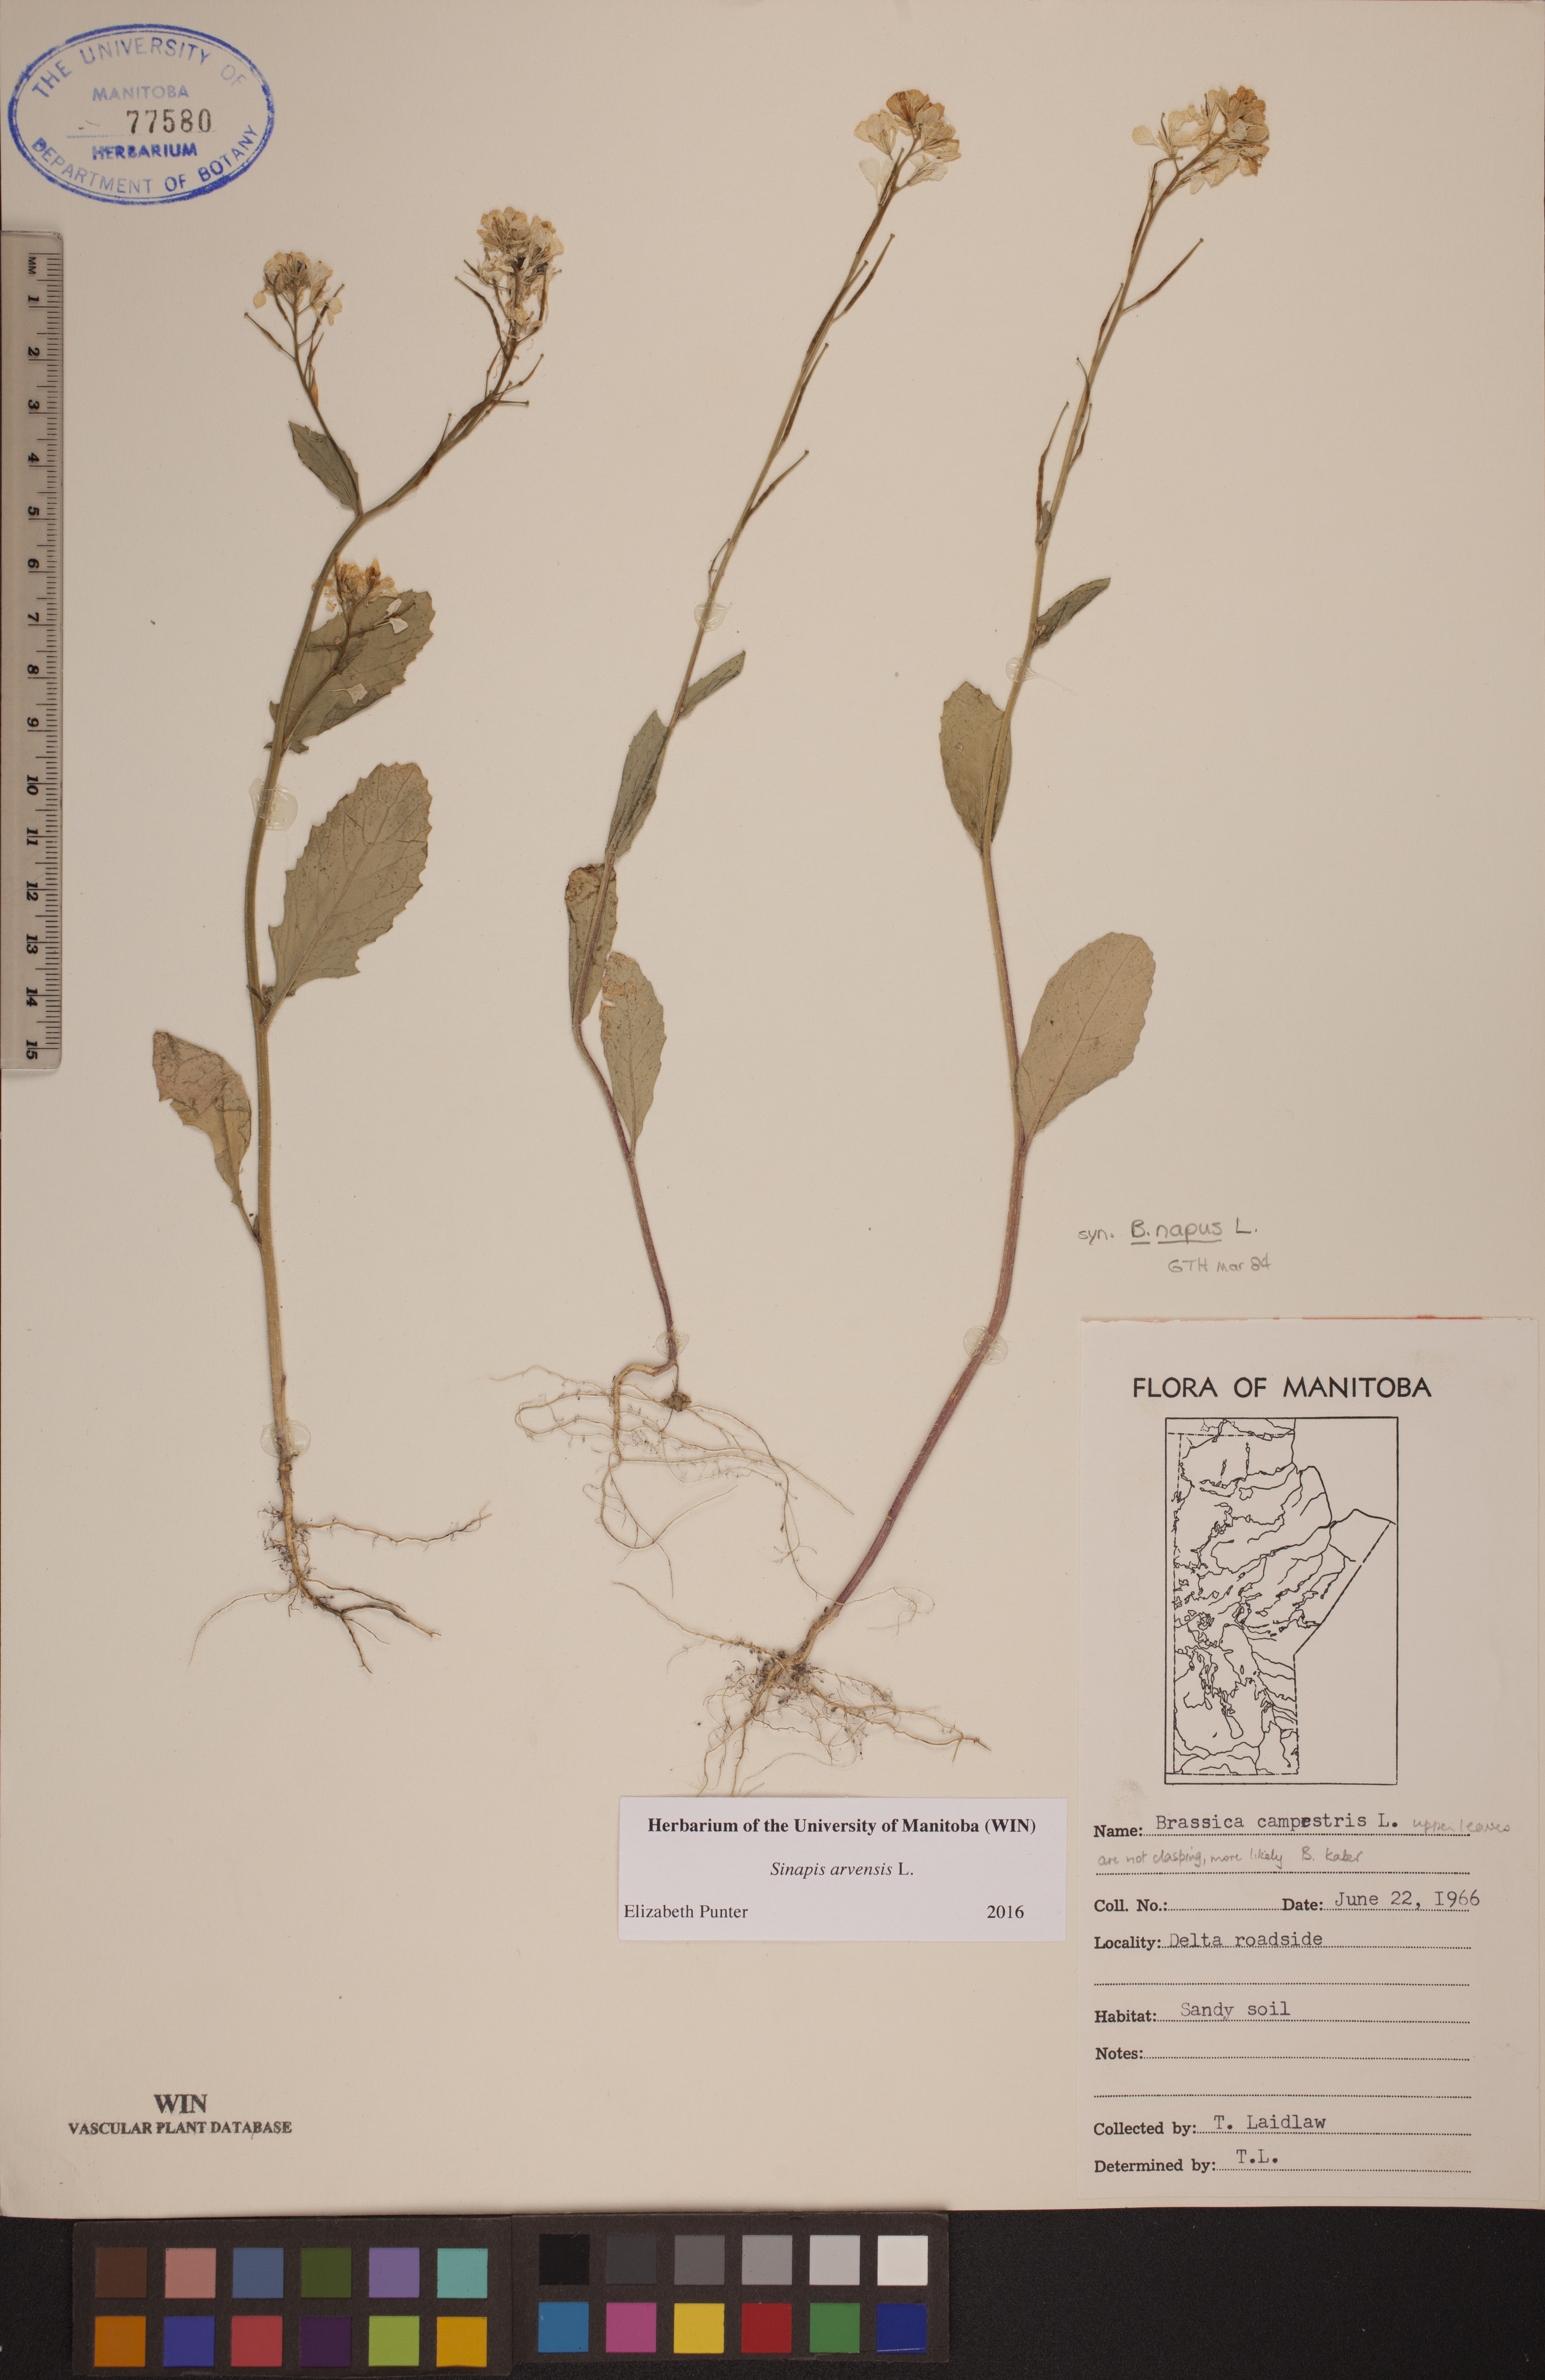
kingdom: Plantae
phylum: Tracheophyta
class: Magnoliopsida
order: Brassicales
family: Brassicaceae
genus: Sinapis
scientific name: Sinapis arvensis
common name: Charlock
